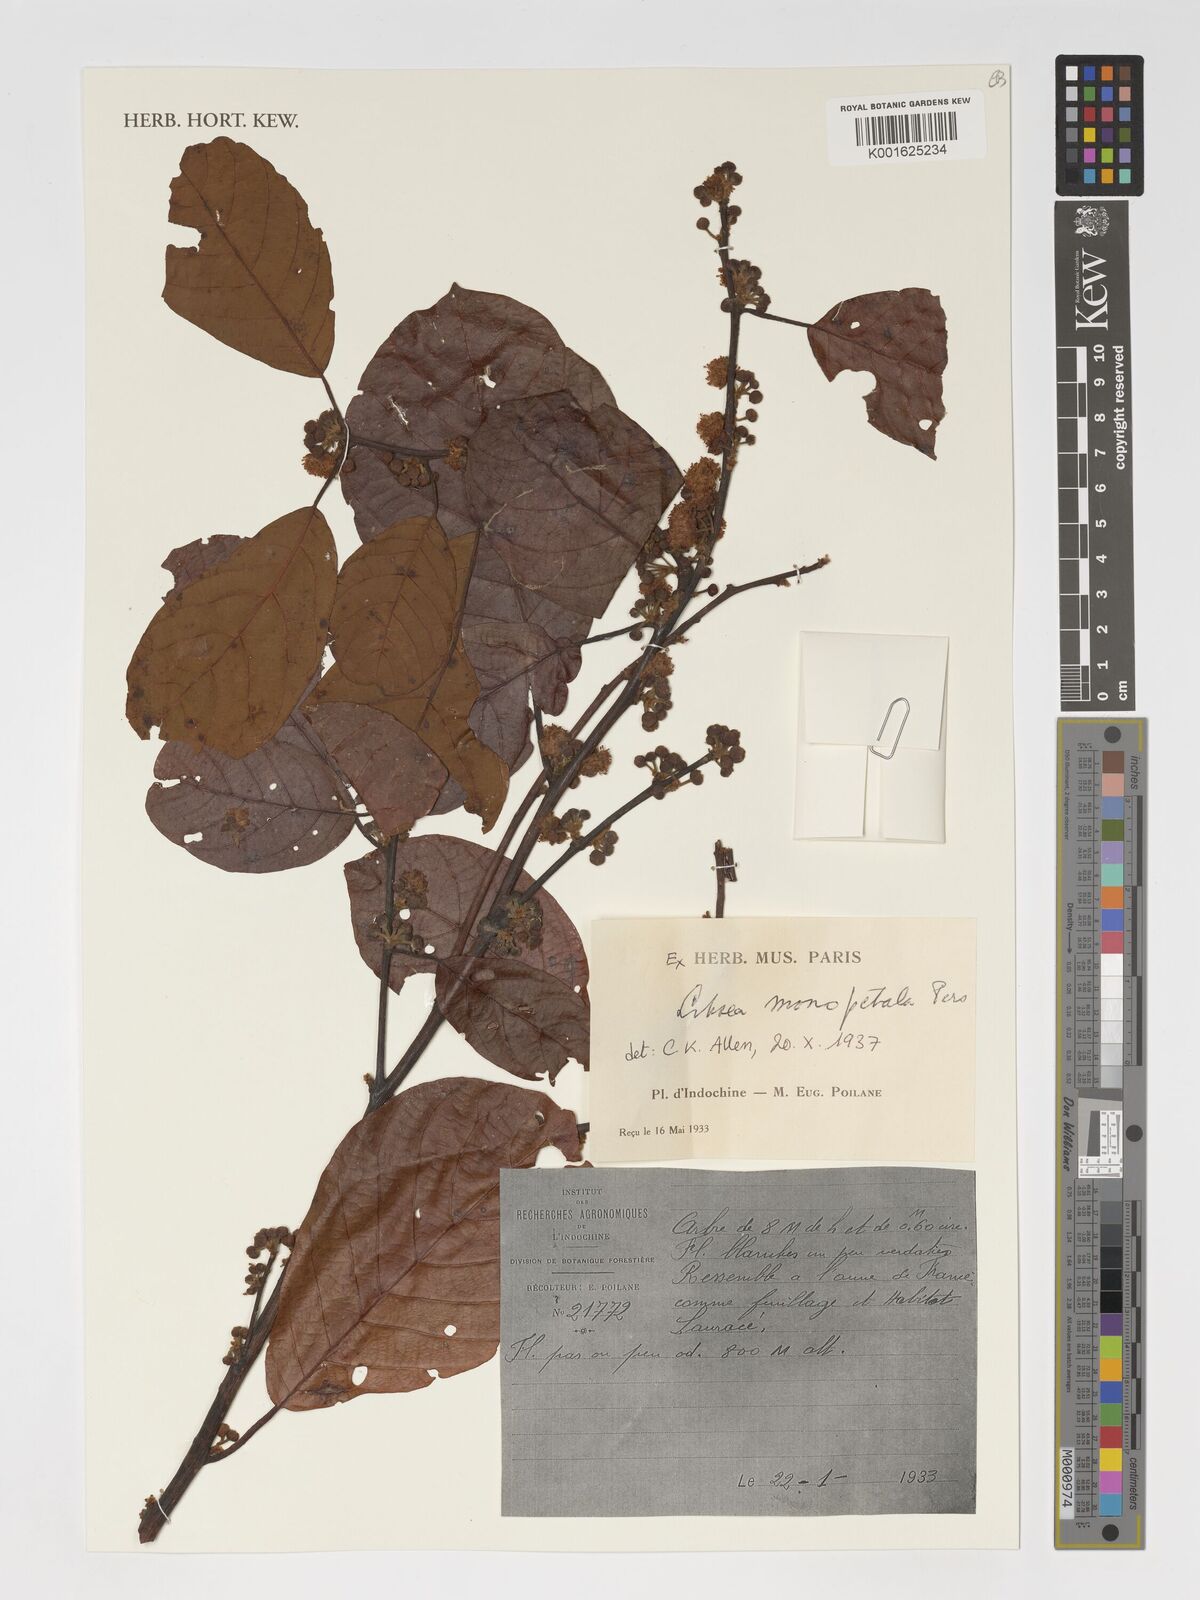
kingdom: Plantae
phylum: Tracheophyta
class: Magnoliopsida
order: Laurales
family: Lauraceae
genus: Litsea
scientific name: Litsea monopetala
